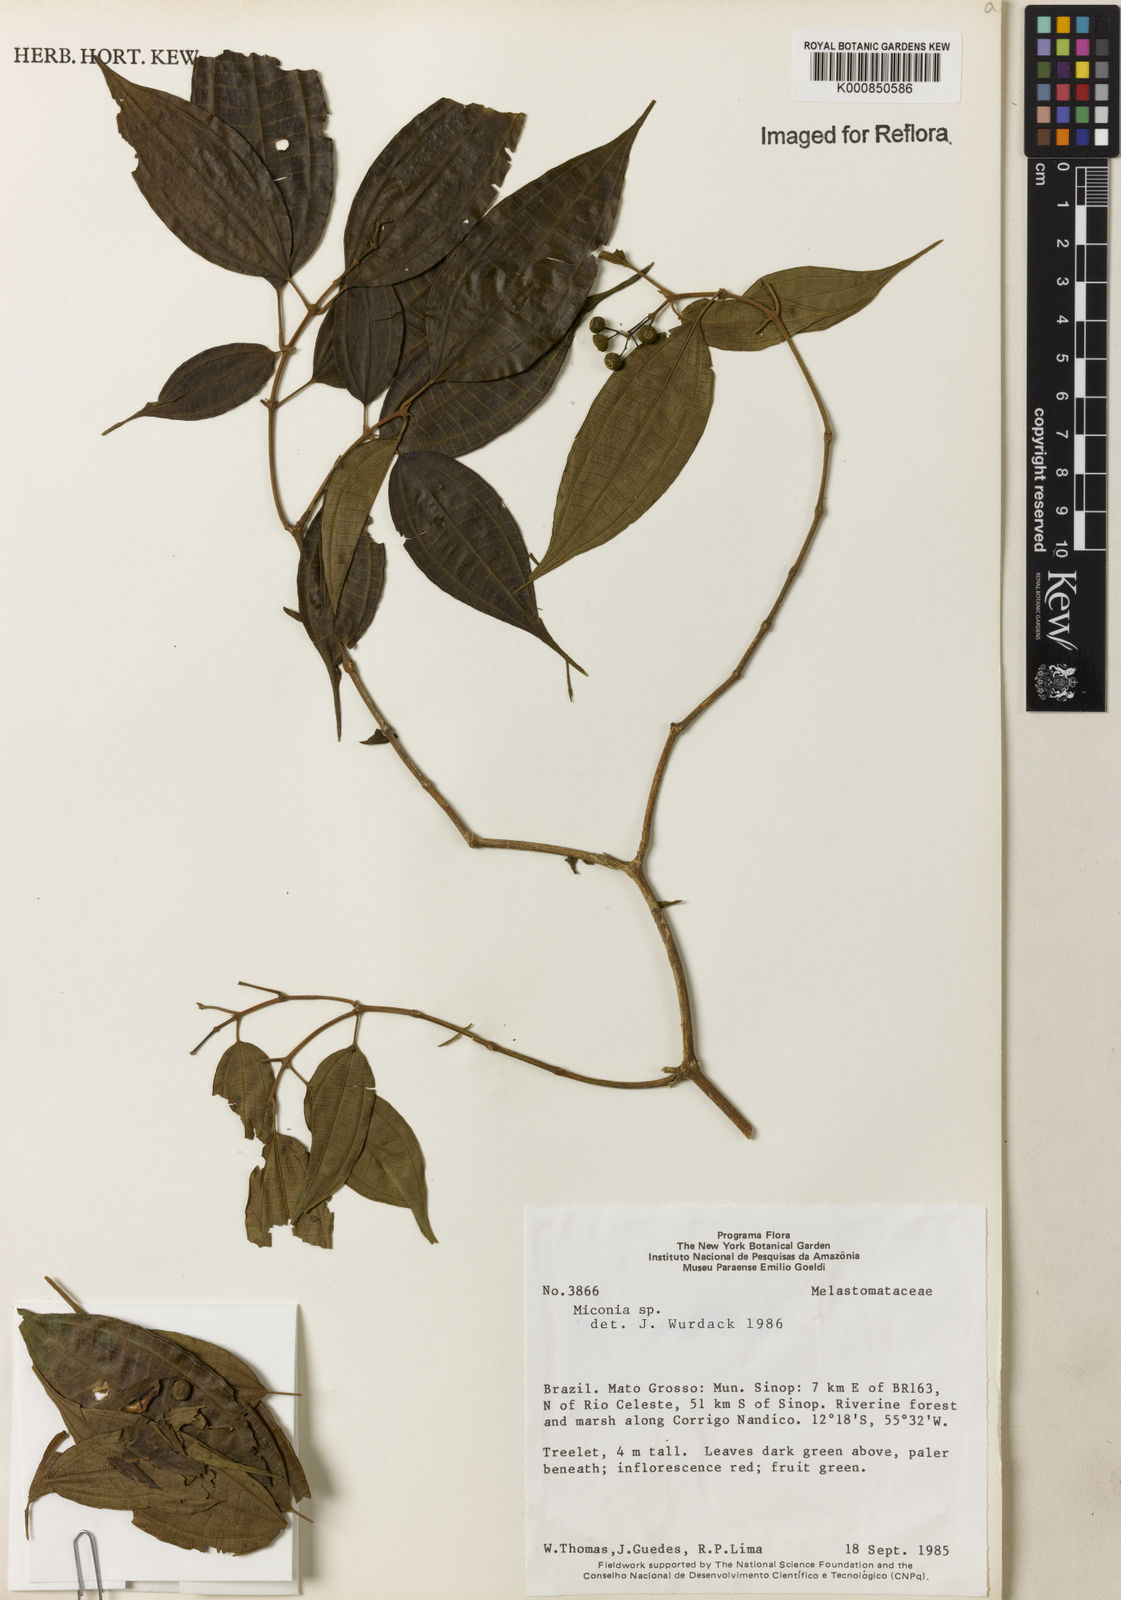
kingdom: Plantae
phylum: Tracheophyta
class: Magnoliopsida
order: Myrtales
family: Melastomataceae
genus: Miconia
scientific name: Miconia
